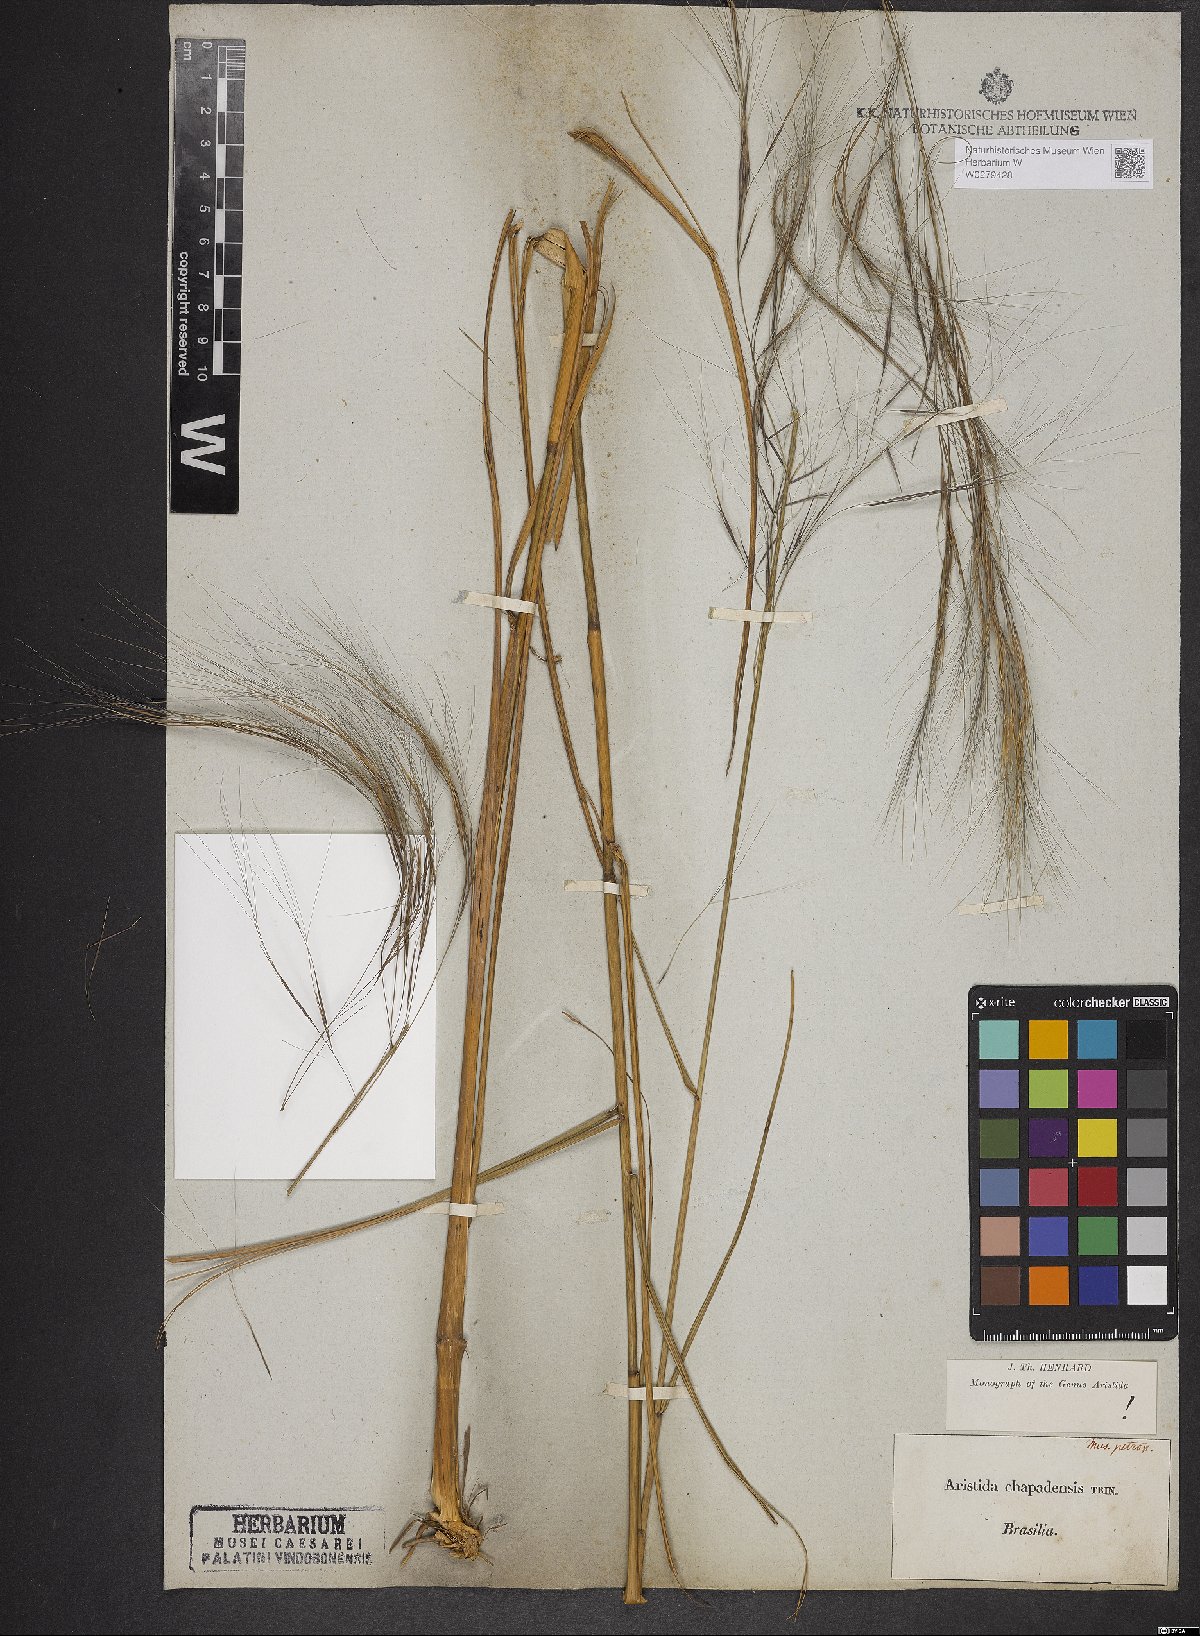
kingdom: Plantae
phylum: Tracheophyta
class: Liliopsida
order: Poales
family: Poaceae
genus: Aristida
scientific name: Aristida chapadensis
